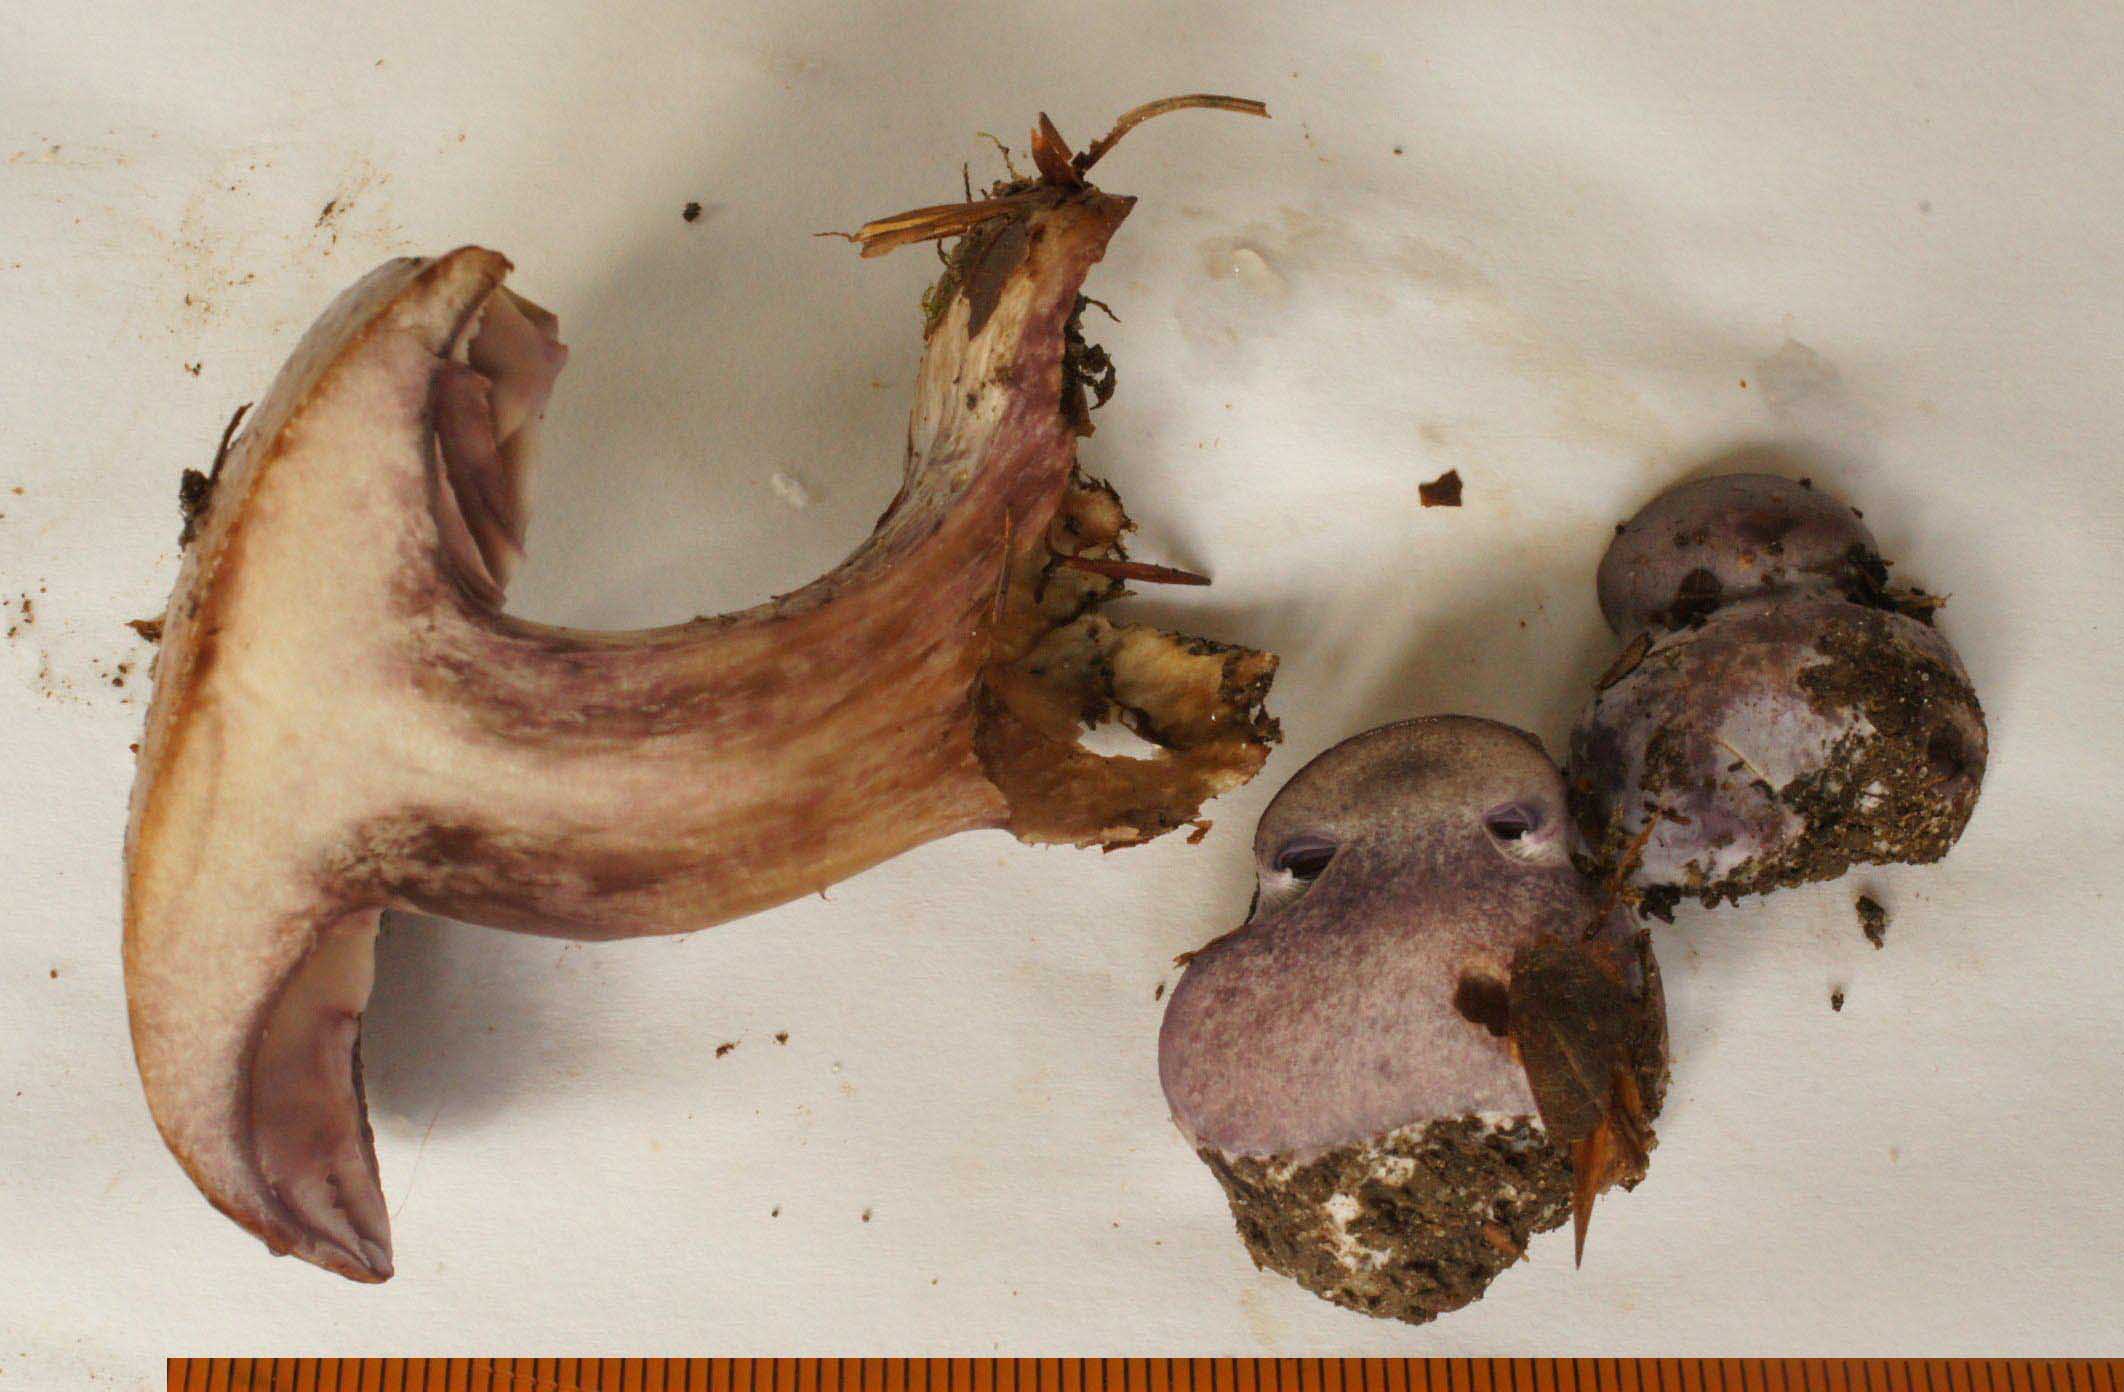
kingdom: Fungi
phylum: Basidiomycota
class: Agaricomycetes
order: Agaricales
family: Cortinariaceae
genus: Thaxterogaster
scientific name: Thaxterogaster subpurpurascens
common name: mørkblånende slørhat
